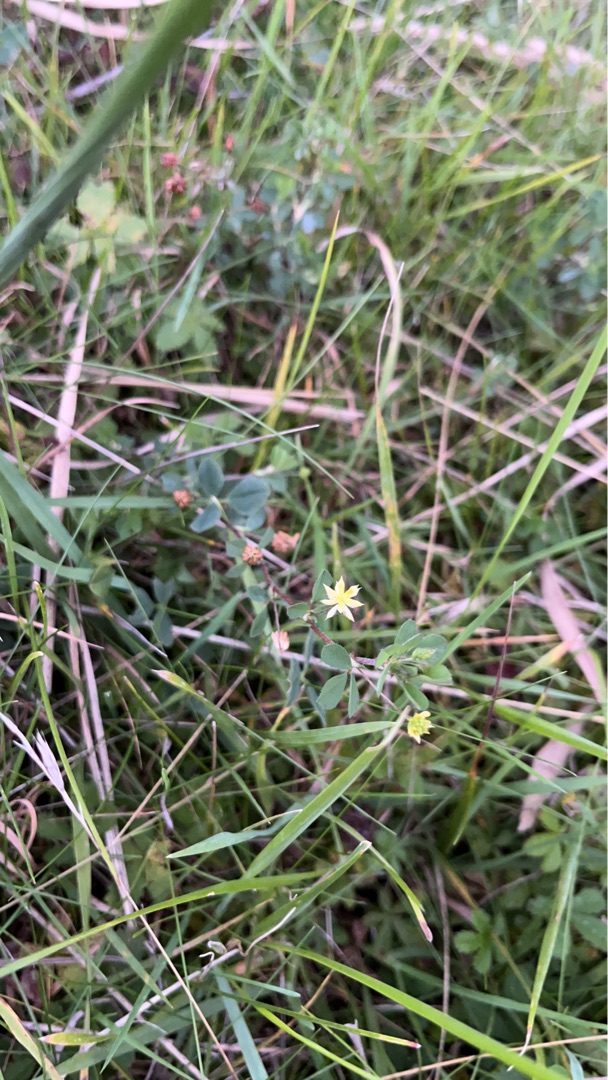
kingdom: Plantae
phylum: Tracheophyta
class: Magnoliopsida
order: Fabales
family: Fabaceae
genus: Trifolium
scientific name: Trifolium dubium
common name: Fin kløver
